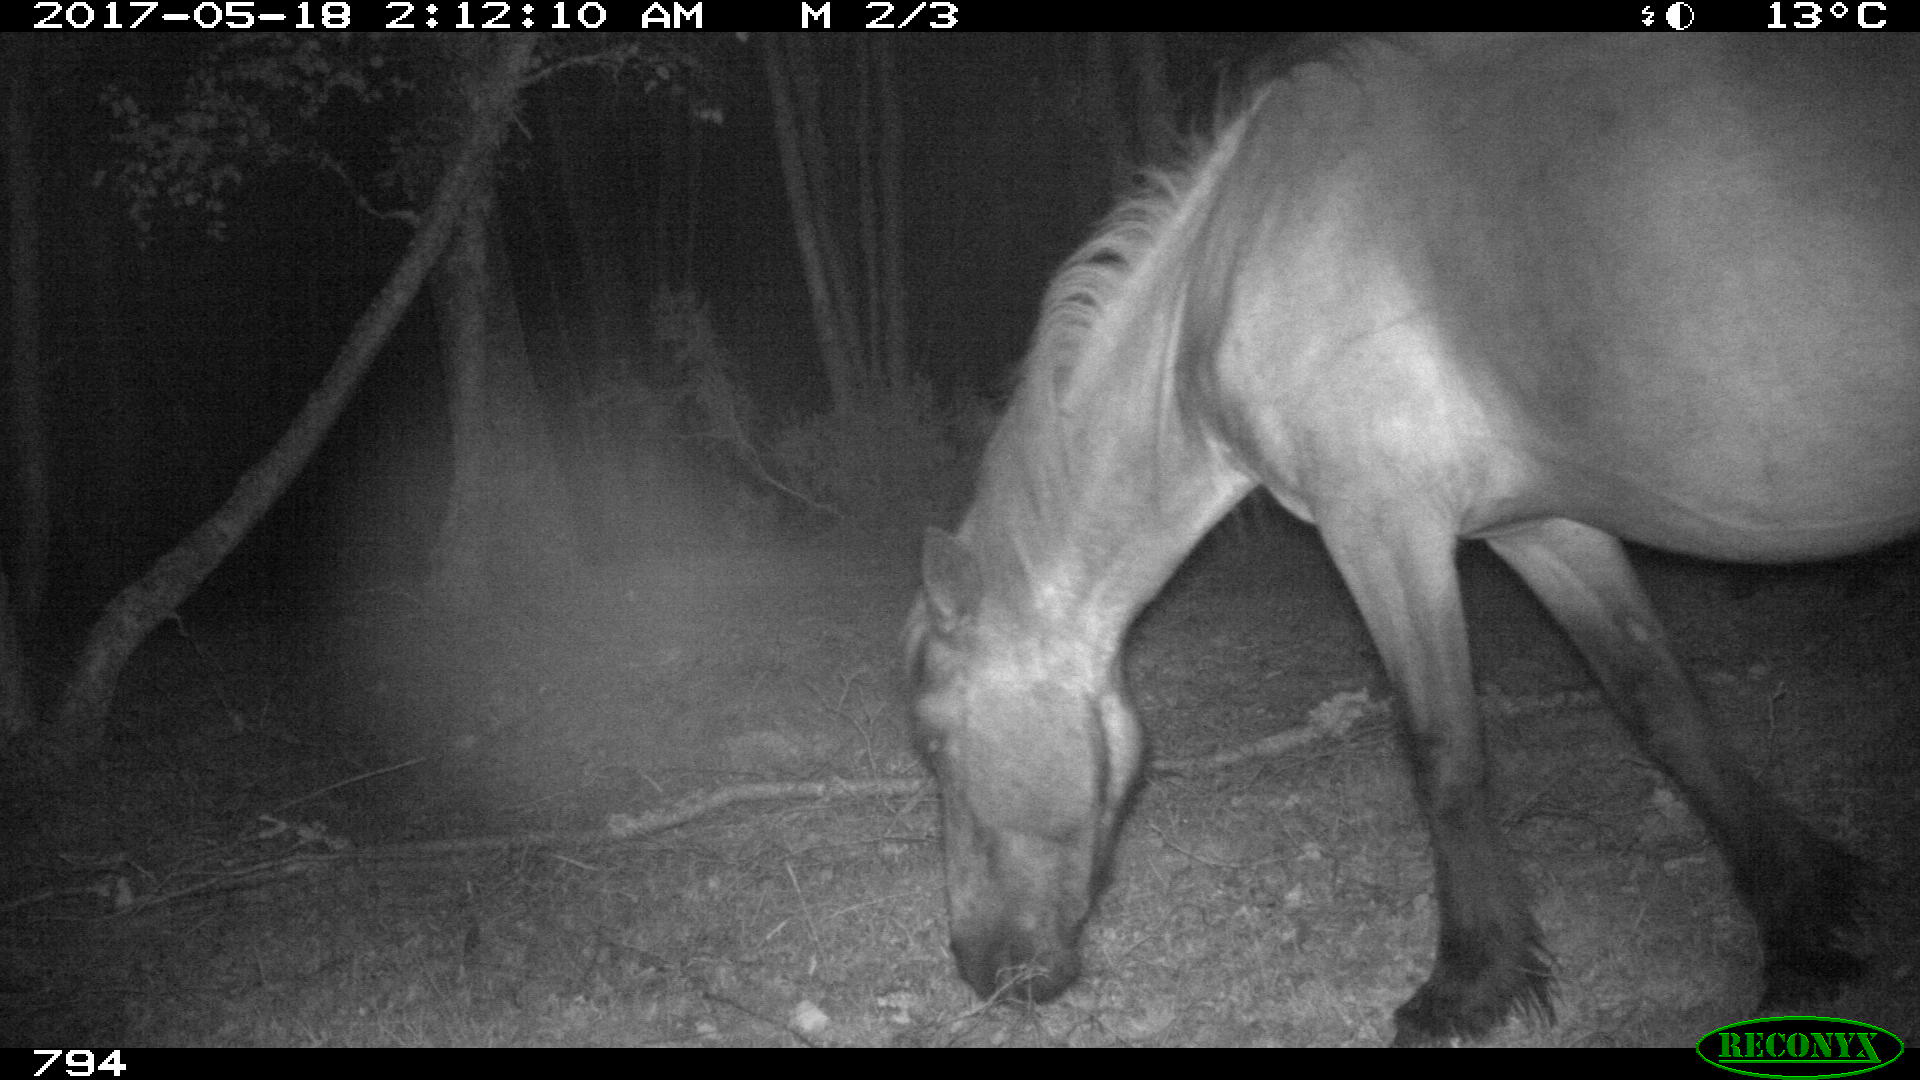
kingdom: Animalia
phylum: Chordata
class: Mammalia
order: Perissodactyla
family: Equidae
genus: Equus
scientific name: Equus caballus
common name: Horse
